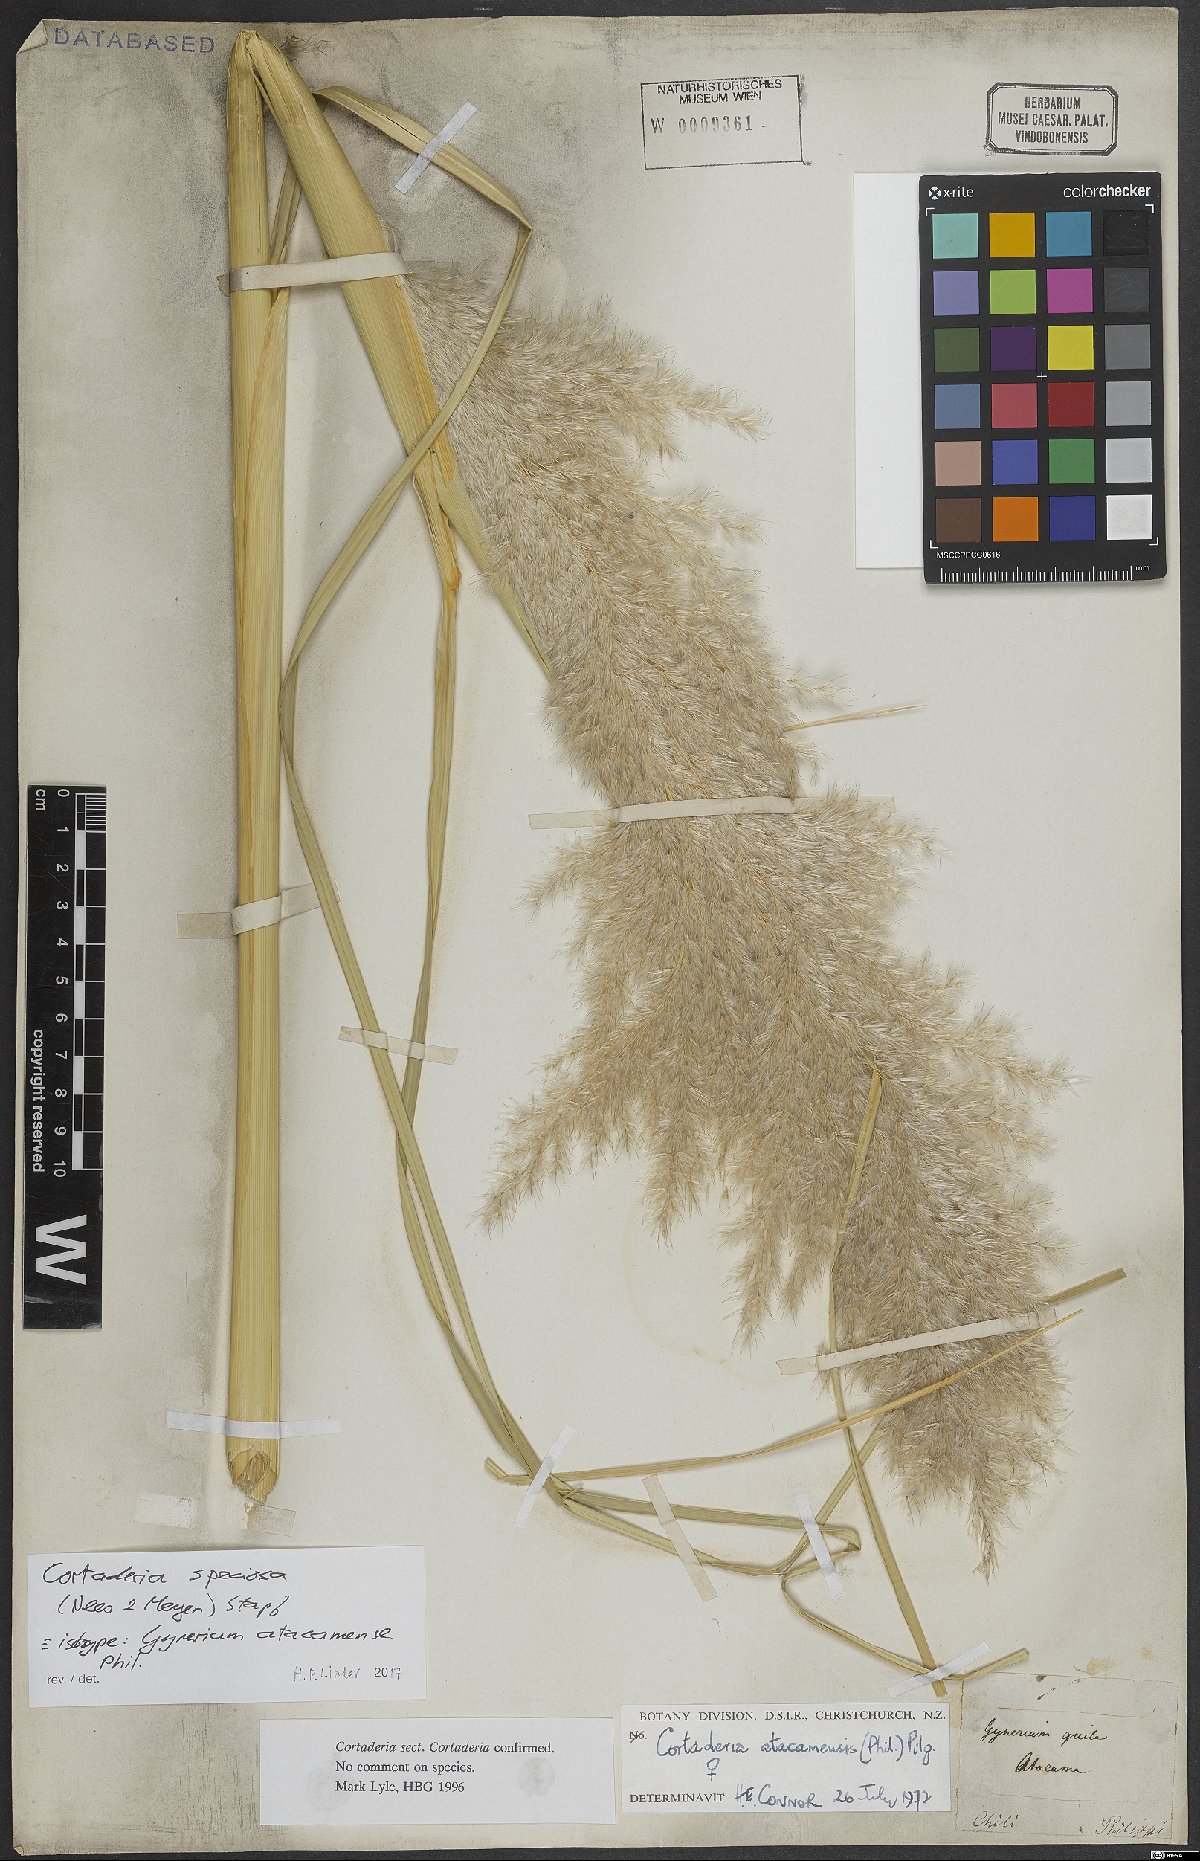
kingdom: Plantae
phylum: Tracheophyta
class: Liliopsida
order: Poales
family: Poaceae
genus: Cortaderia
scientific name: Cortaderia speciosa
